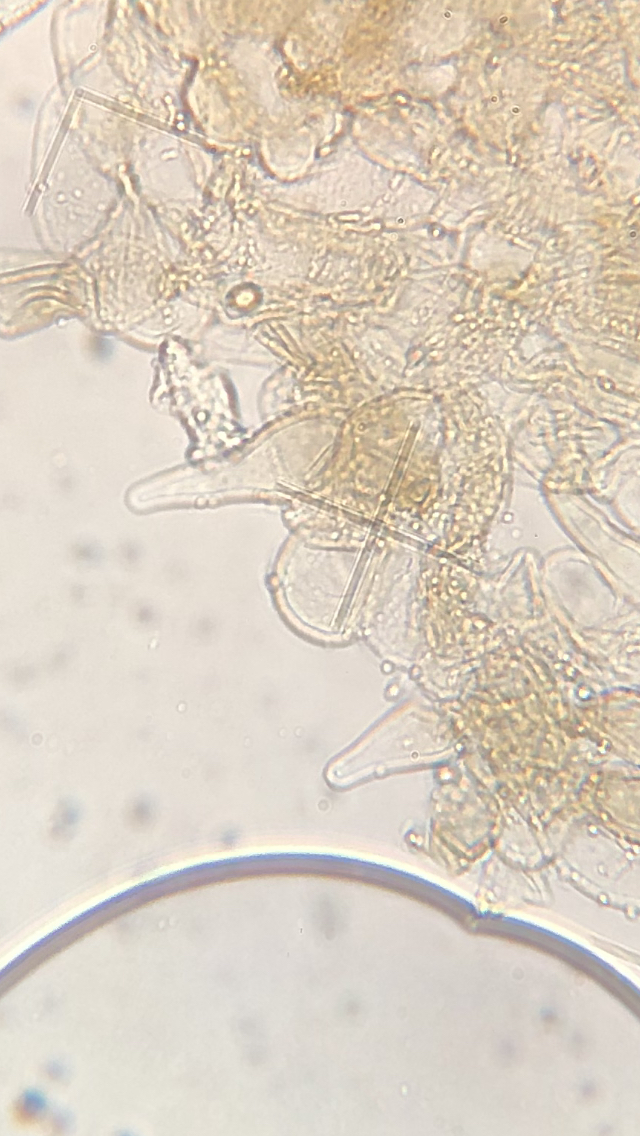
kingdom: Fungi
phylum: Basidiomycota
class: Agaricomycetes
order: Agaricales
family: Crepidotaceae
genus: Simocybe
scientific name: Simocybe centunculus
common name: enlig skyggehat
